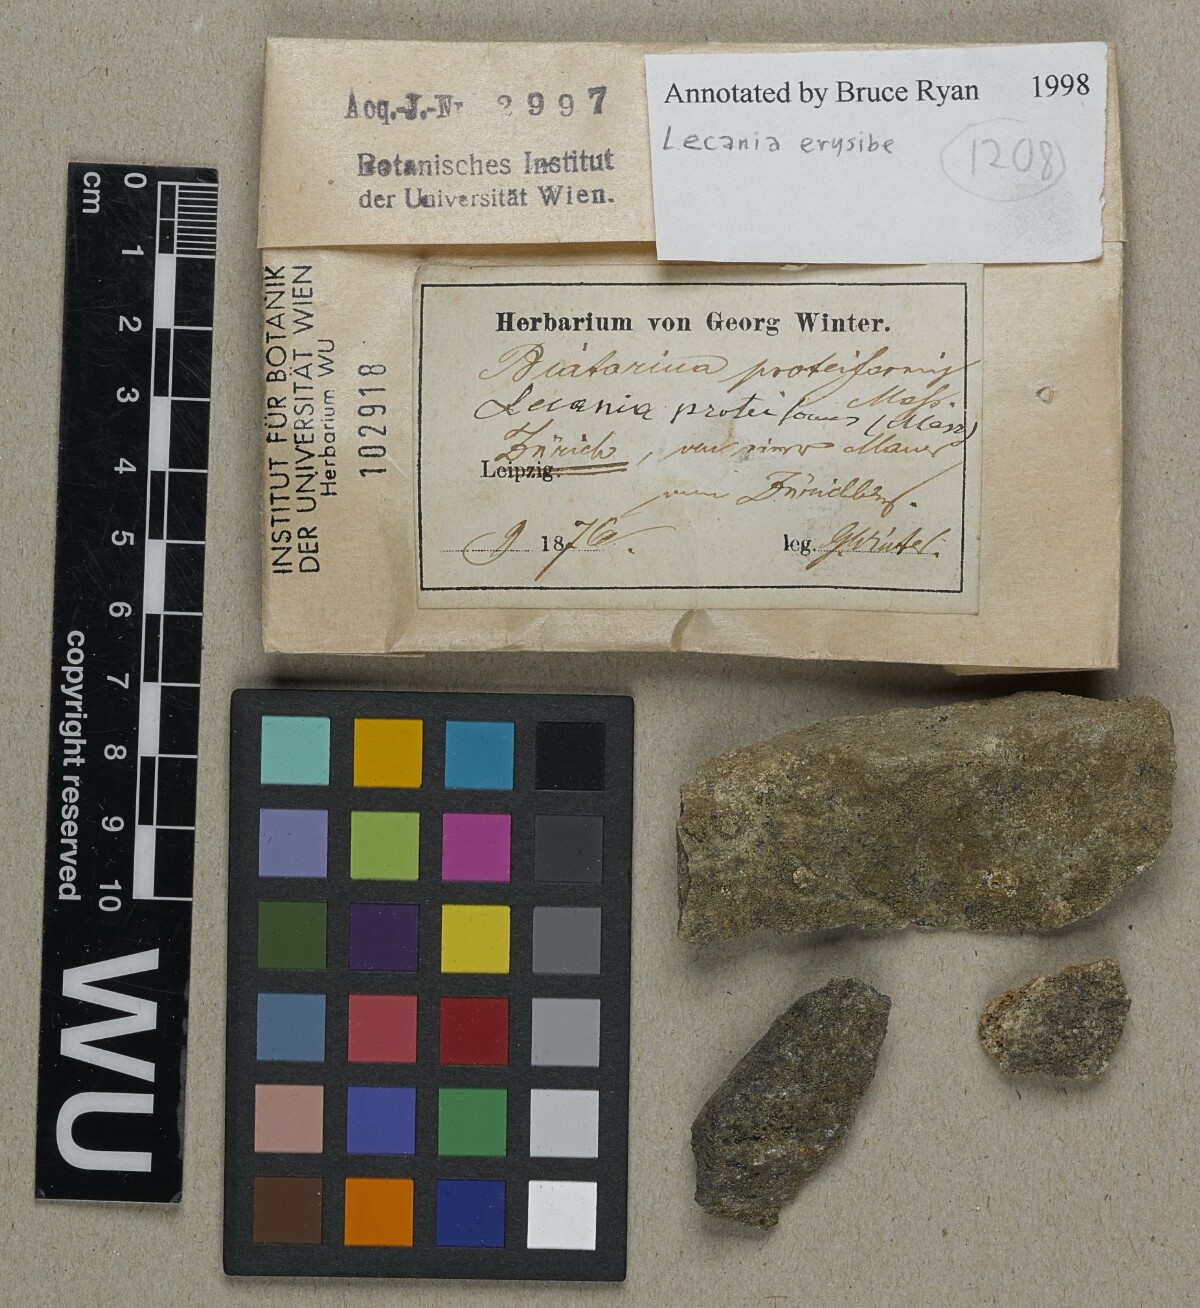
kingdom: Fungi
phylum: Ascomycota
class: Lecanoromycetes
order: Lecanorales
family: Ramalinaceae
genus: Lecania
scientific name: Lecania erysibe
